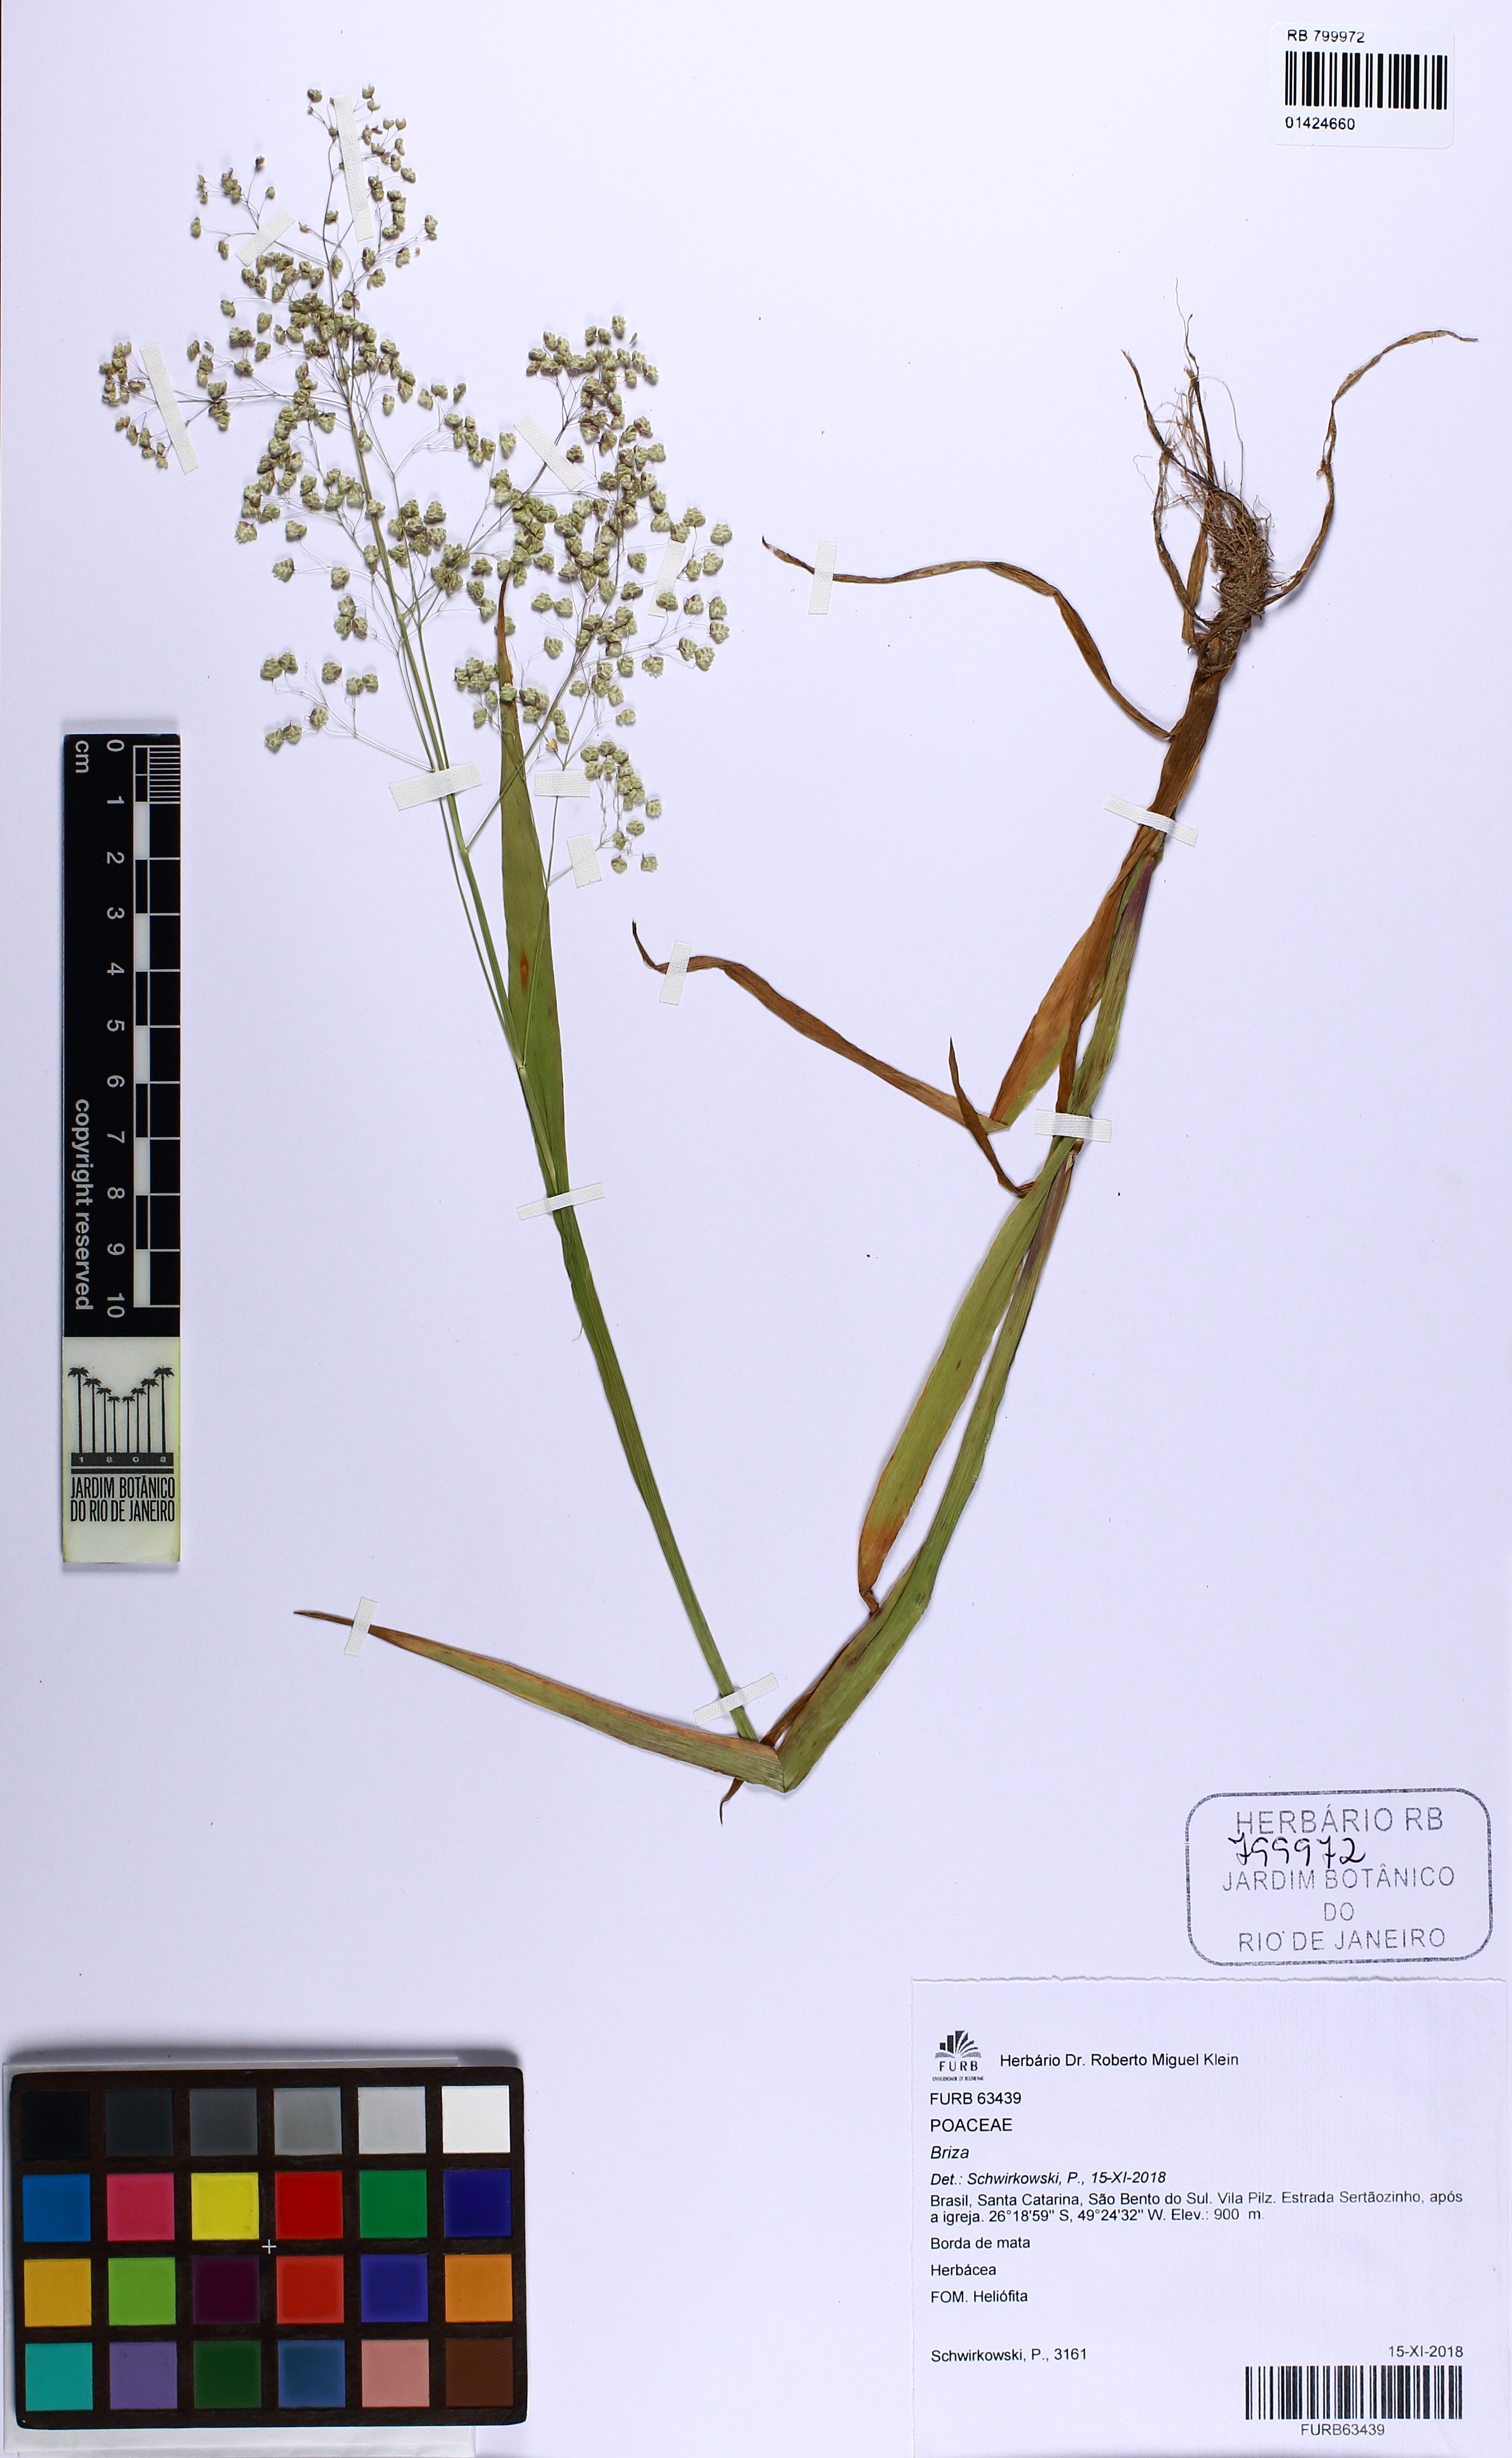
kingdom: Plantae
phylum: Tracheophyta
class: Liliopsida
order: Poales
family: Poaceae
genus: Briza
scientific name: Briza
